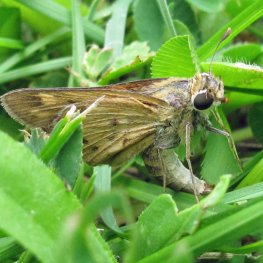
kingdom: Animalia
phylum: Arthropoda
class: Insecta
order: Lepidoptera
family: Hesperiidae
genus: Hylephila
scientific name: Hylephila phyleus
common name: Fiery Skipper
